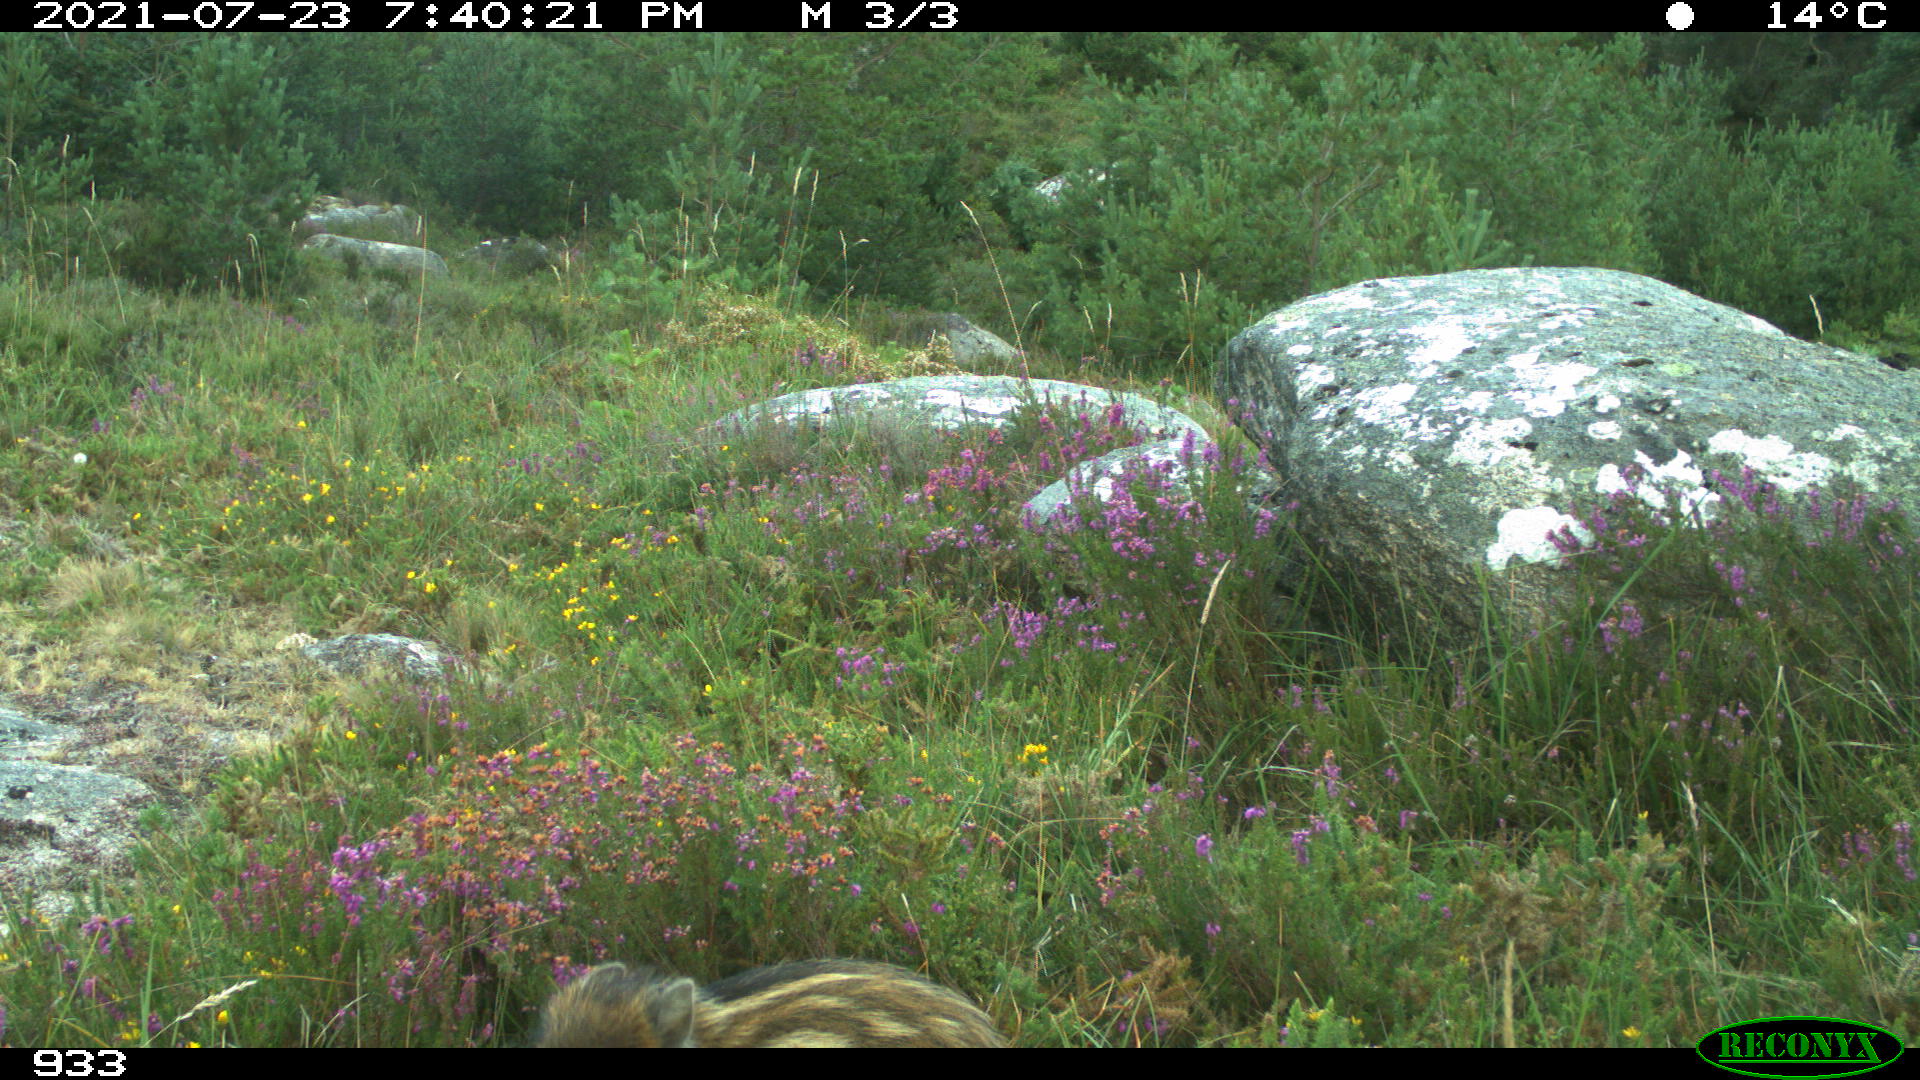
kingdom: Animalia
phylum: Chordata
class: Mammalia
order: Artiodactyla
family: Suidae
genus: Sus
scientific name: Sus scrofa
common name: Wild boar
